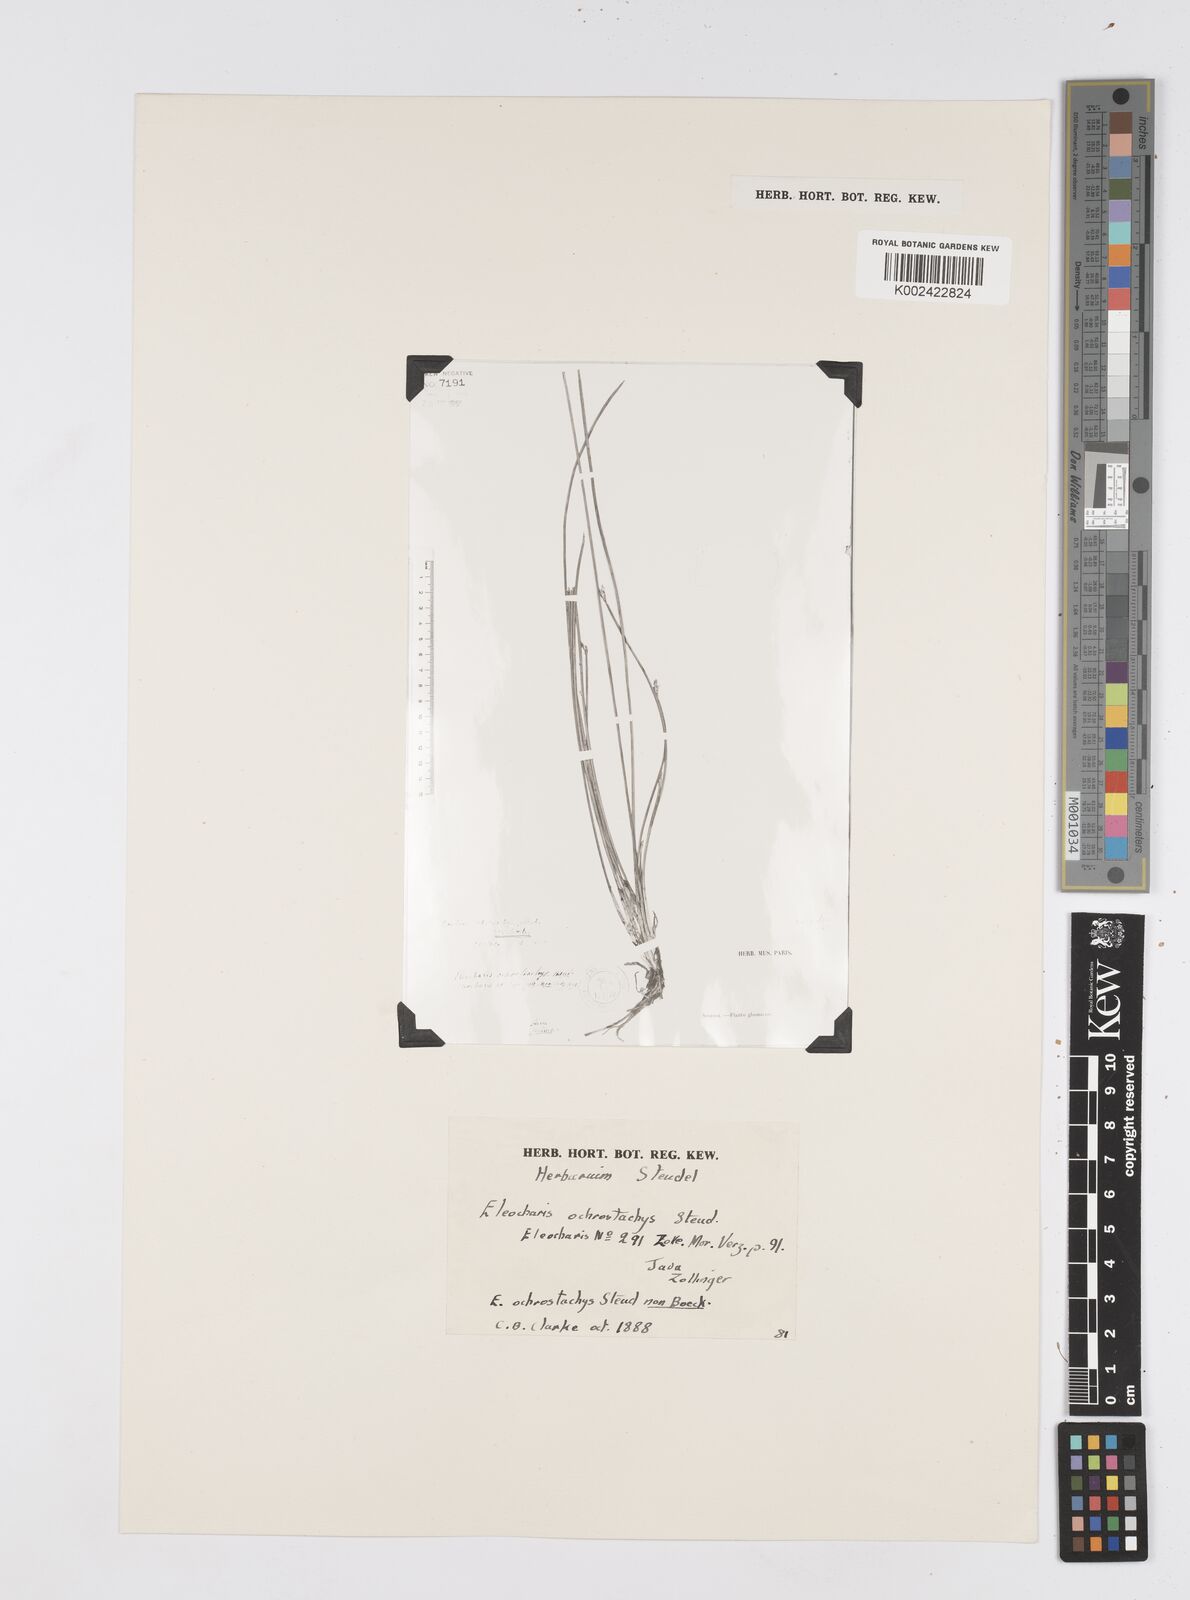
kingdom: Plantae
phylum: Tracheophyta
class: Liliopsida
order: Poales
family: Cyperaceae
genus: Eleocharis
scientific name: Eleocharis ochrostachys
